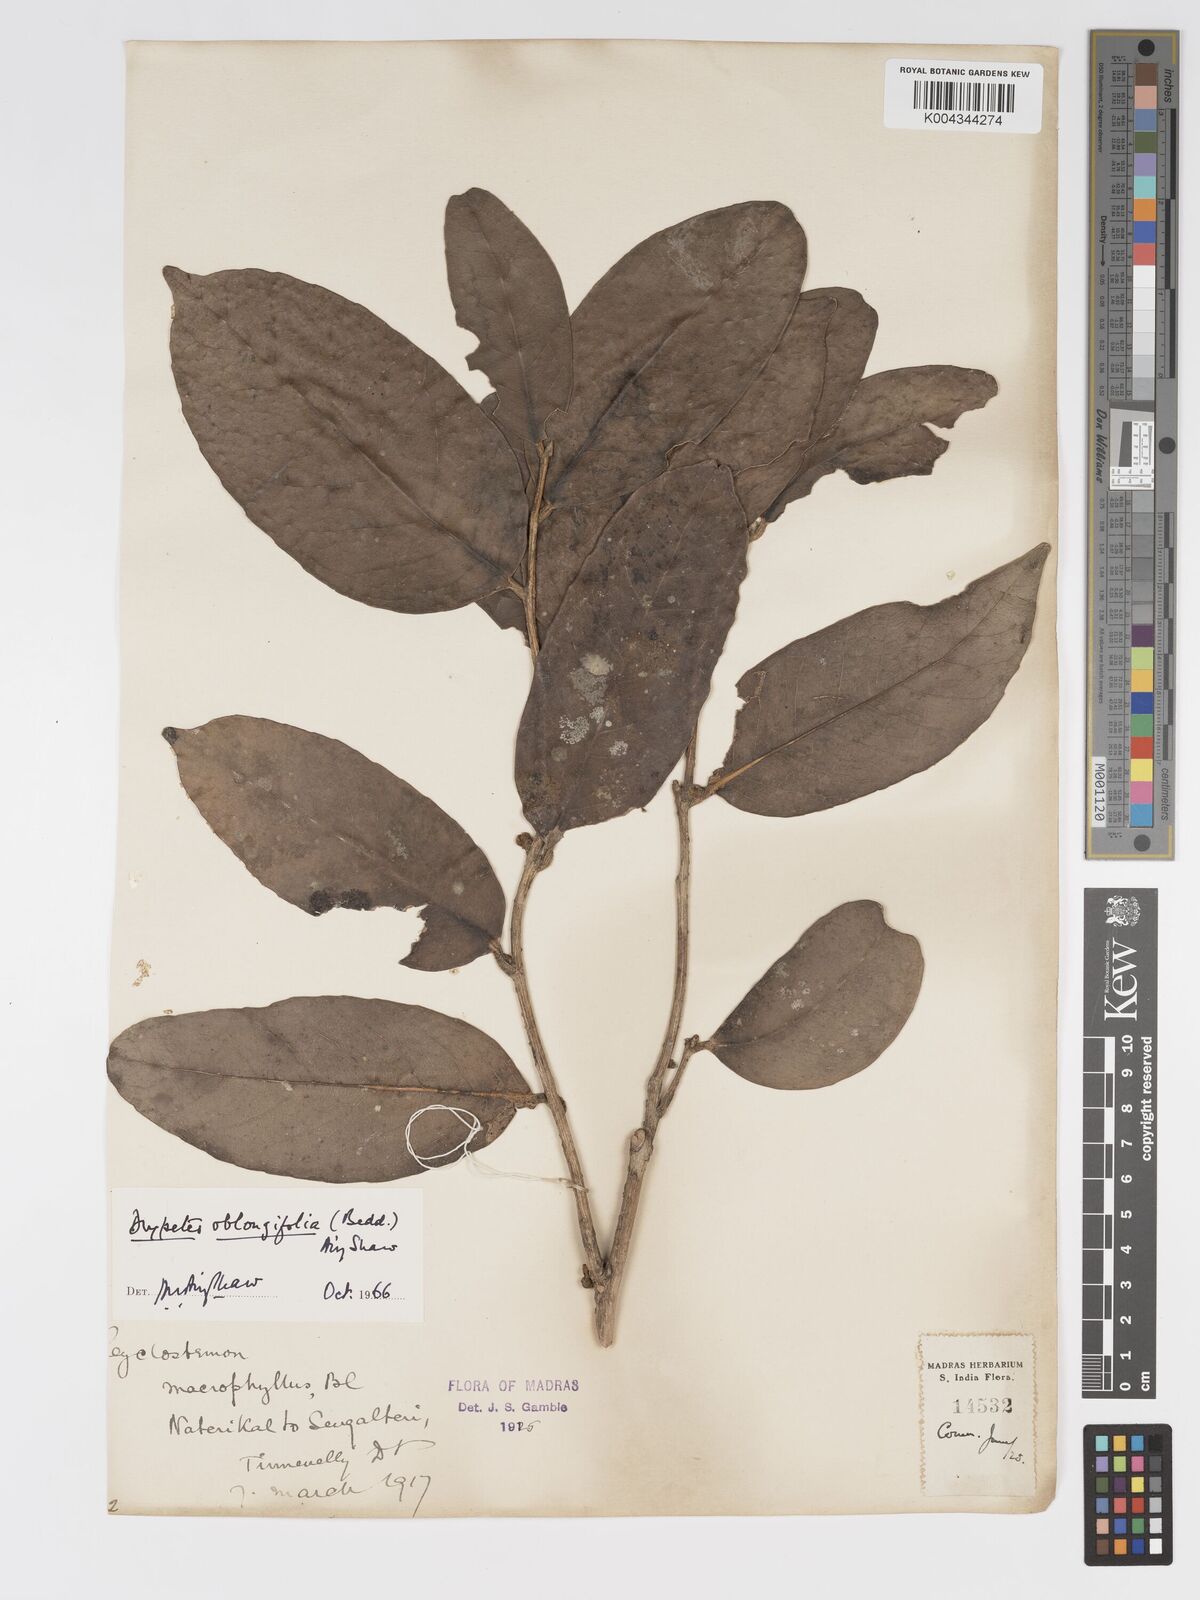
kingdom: Plantae
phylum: Tracheophyta
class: Magnoliopsida
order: Malpighiales
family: Putranjivaceae
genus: Drypetes
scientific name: Drypetes oblongifolia
